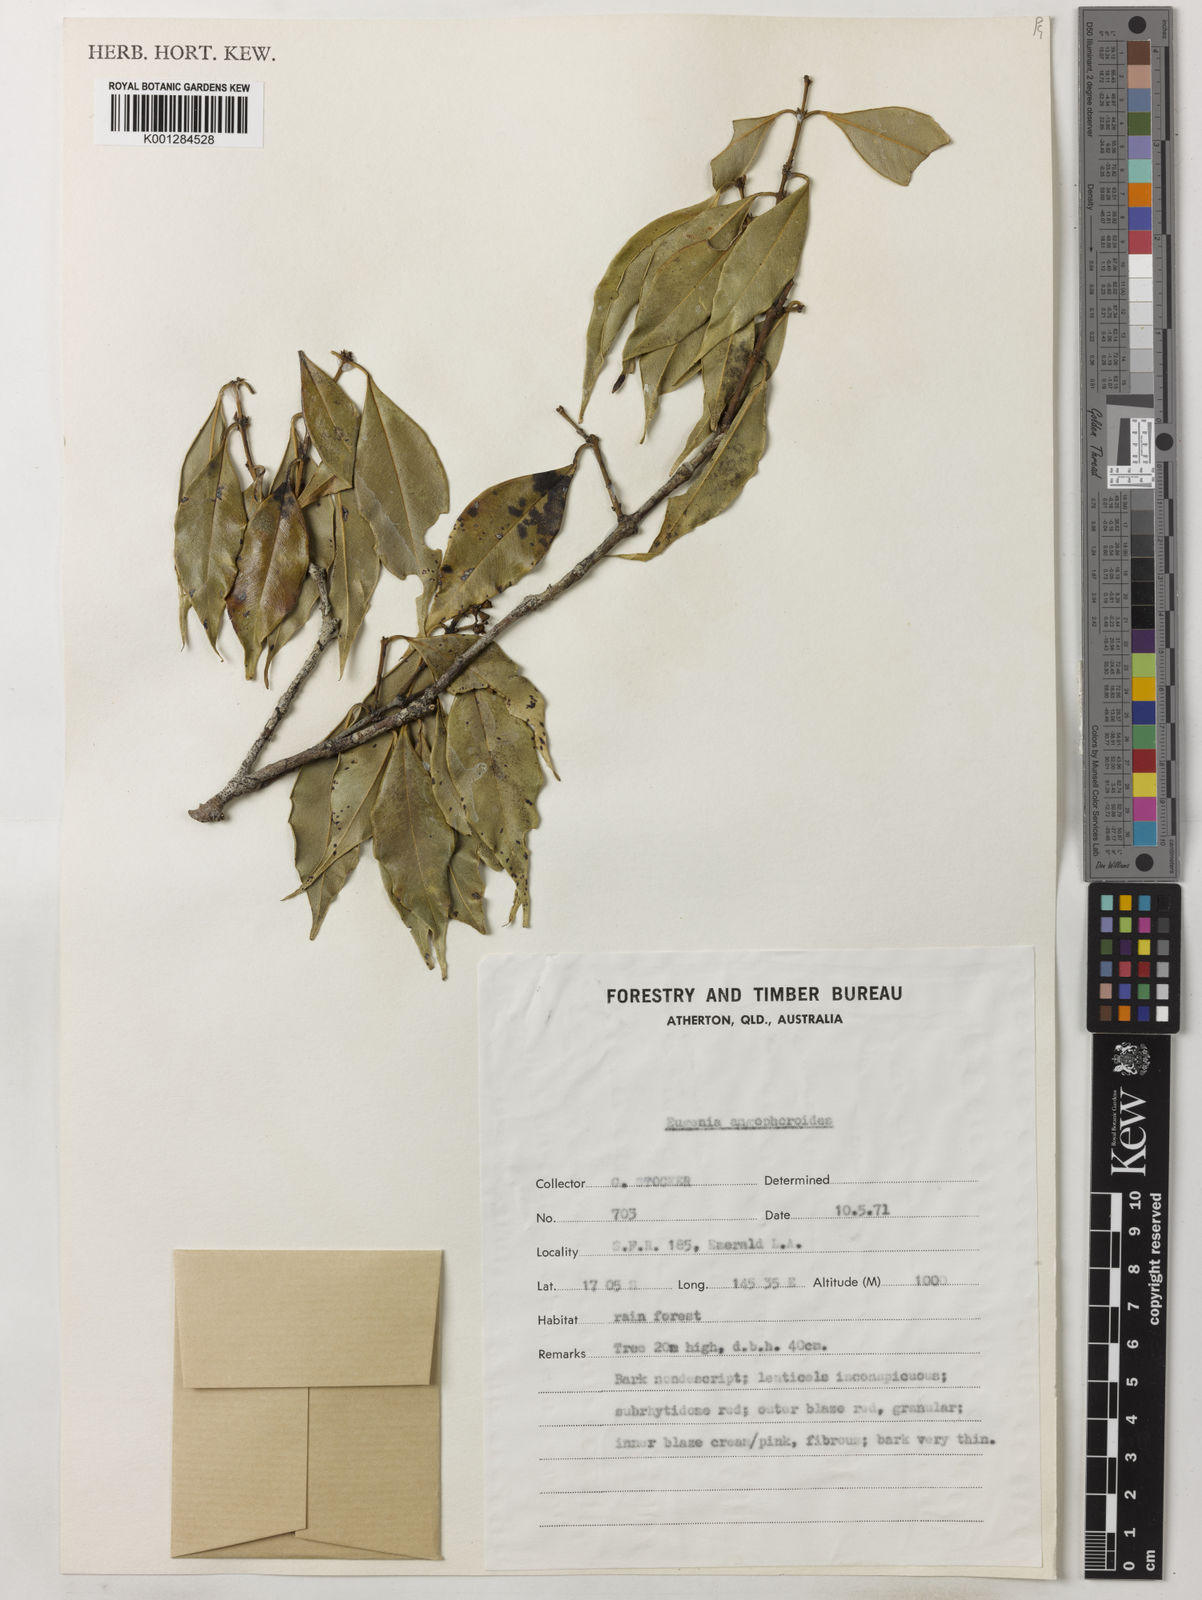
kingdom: Plantae
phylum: Tracheophyta
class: Magnoliopsida
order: Myrtales
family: Myrtaceae
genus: Syzygium
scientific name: Syzygium angophoroides
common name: Swamp satinash
